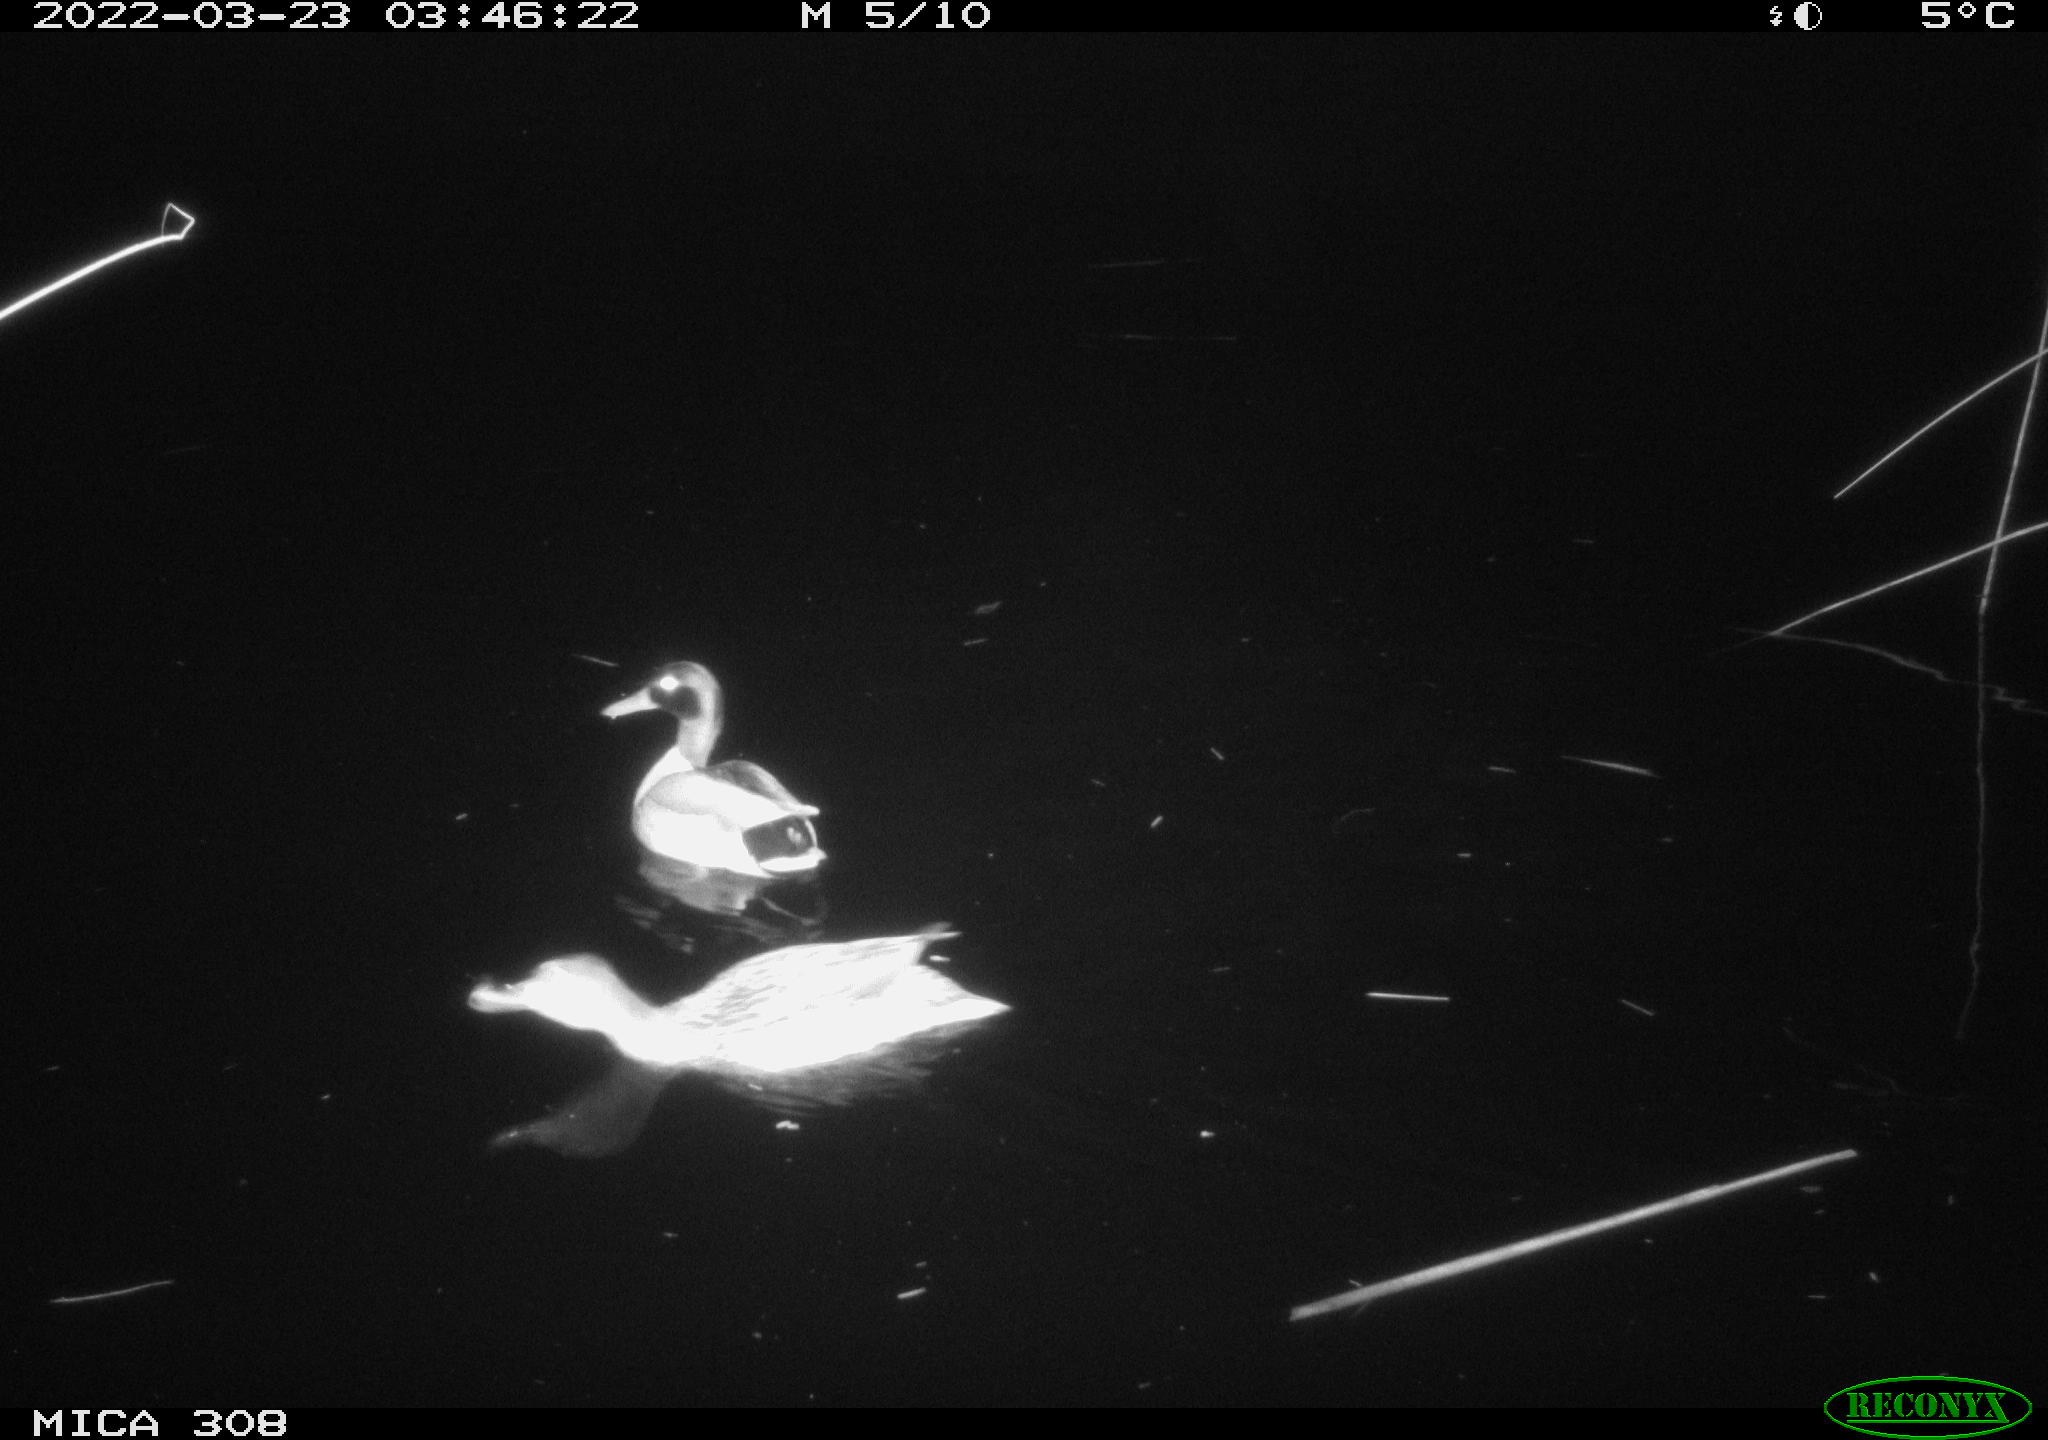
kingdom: Animalia
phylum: Chordata
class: Aves
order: Anseriformes
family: Anatidae
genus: Anas
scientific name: Anas platyrhynchos
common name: Mallard
